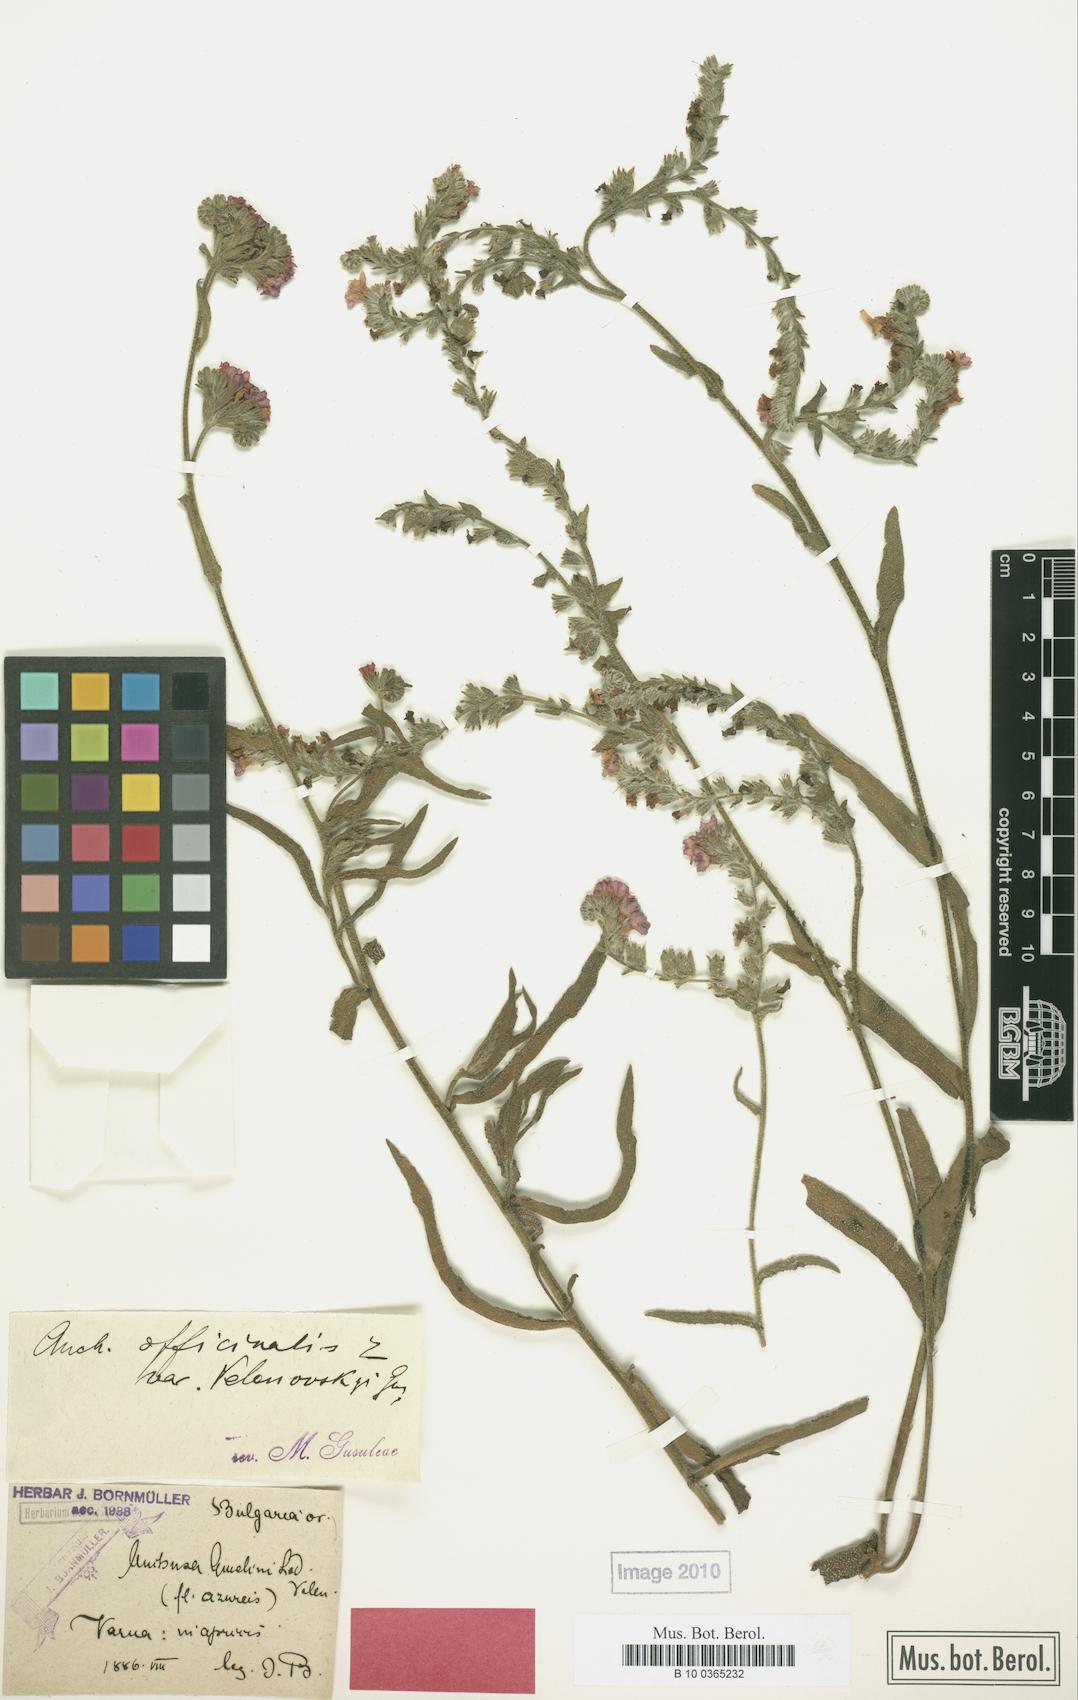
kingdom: Plantae
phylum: Tracheophyta
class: Magnoliopsida
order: Boraginales
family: Boraginaceae
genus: Anchusa
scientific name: Anchusa officinalis
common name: Alkanet
